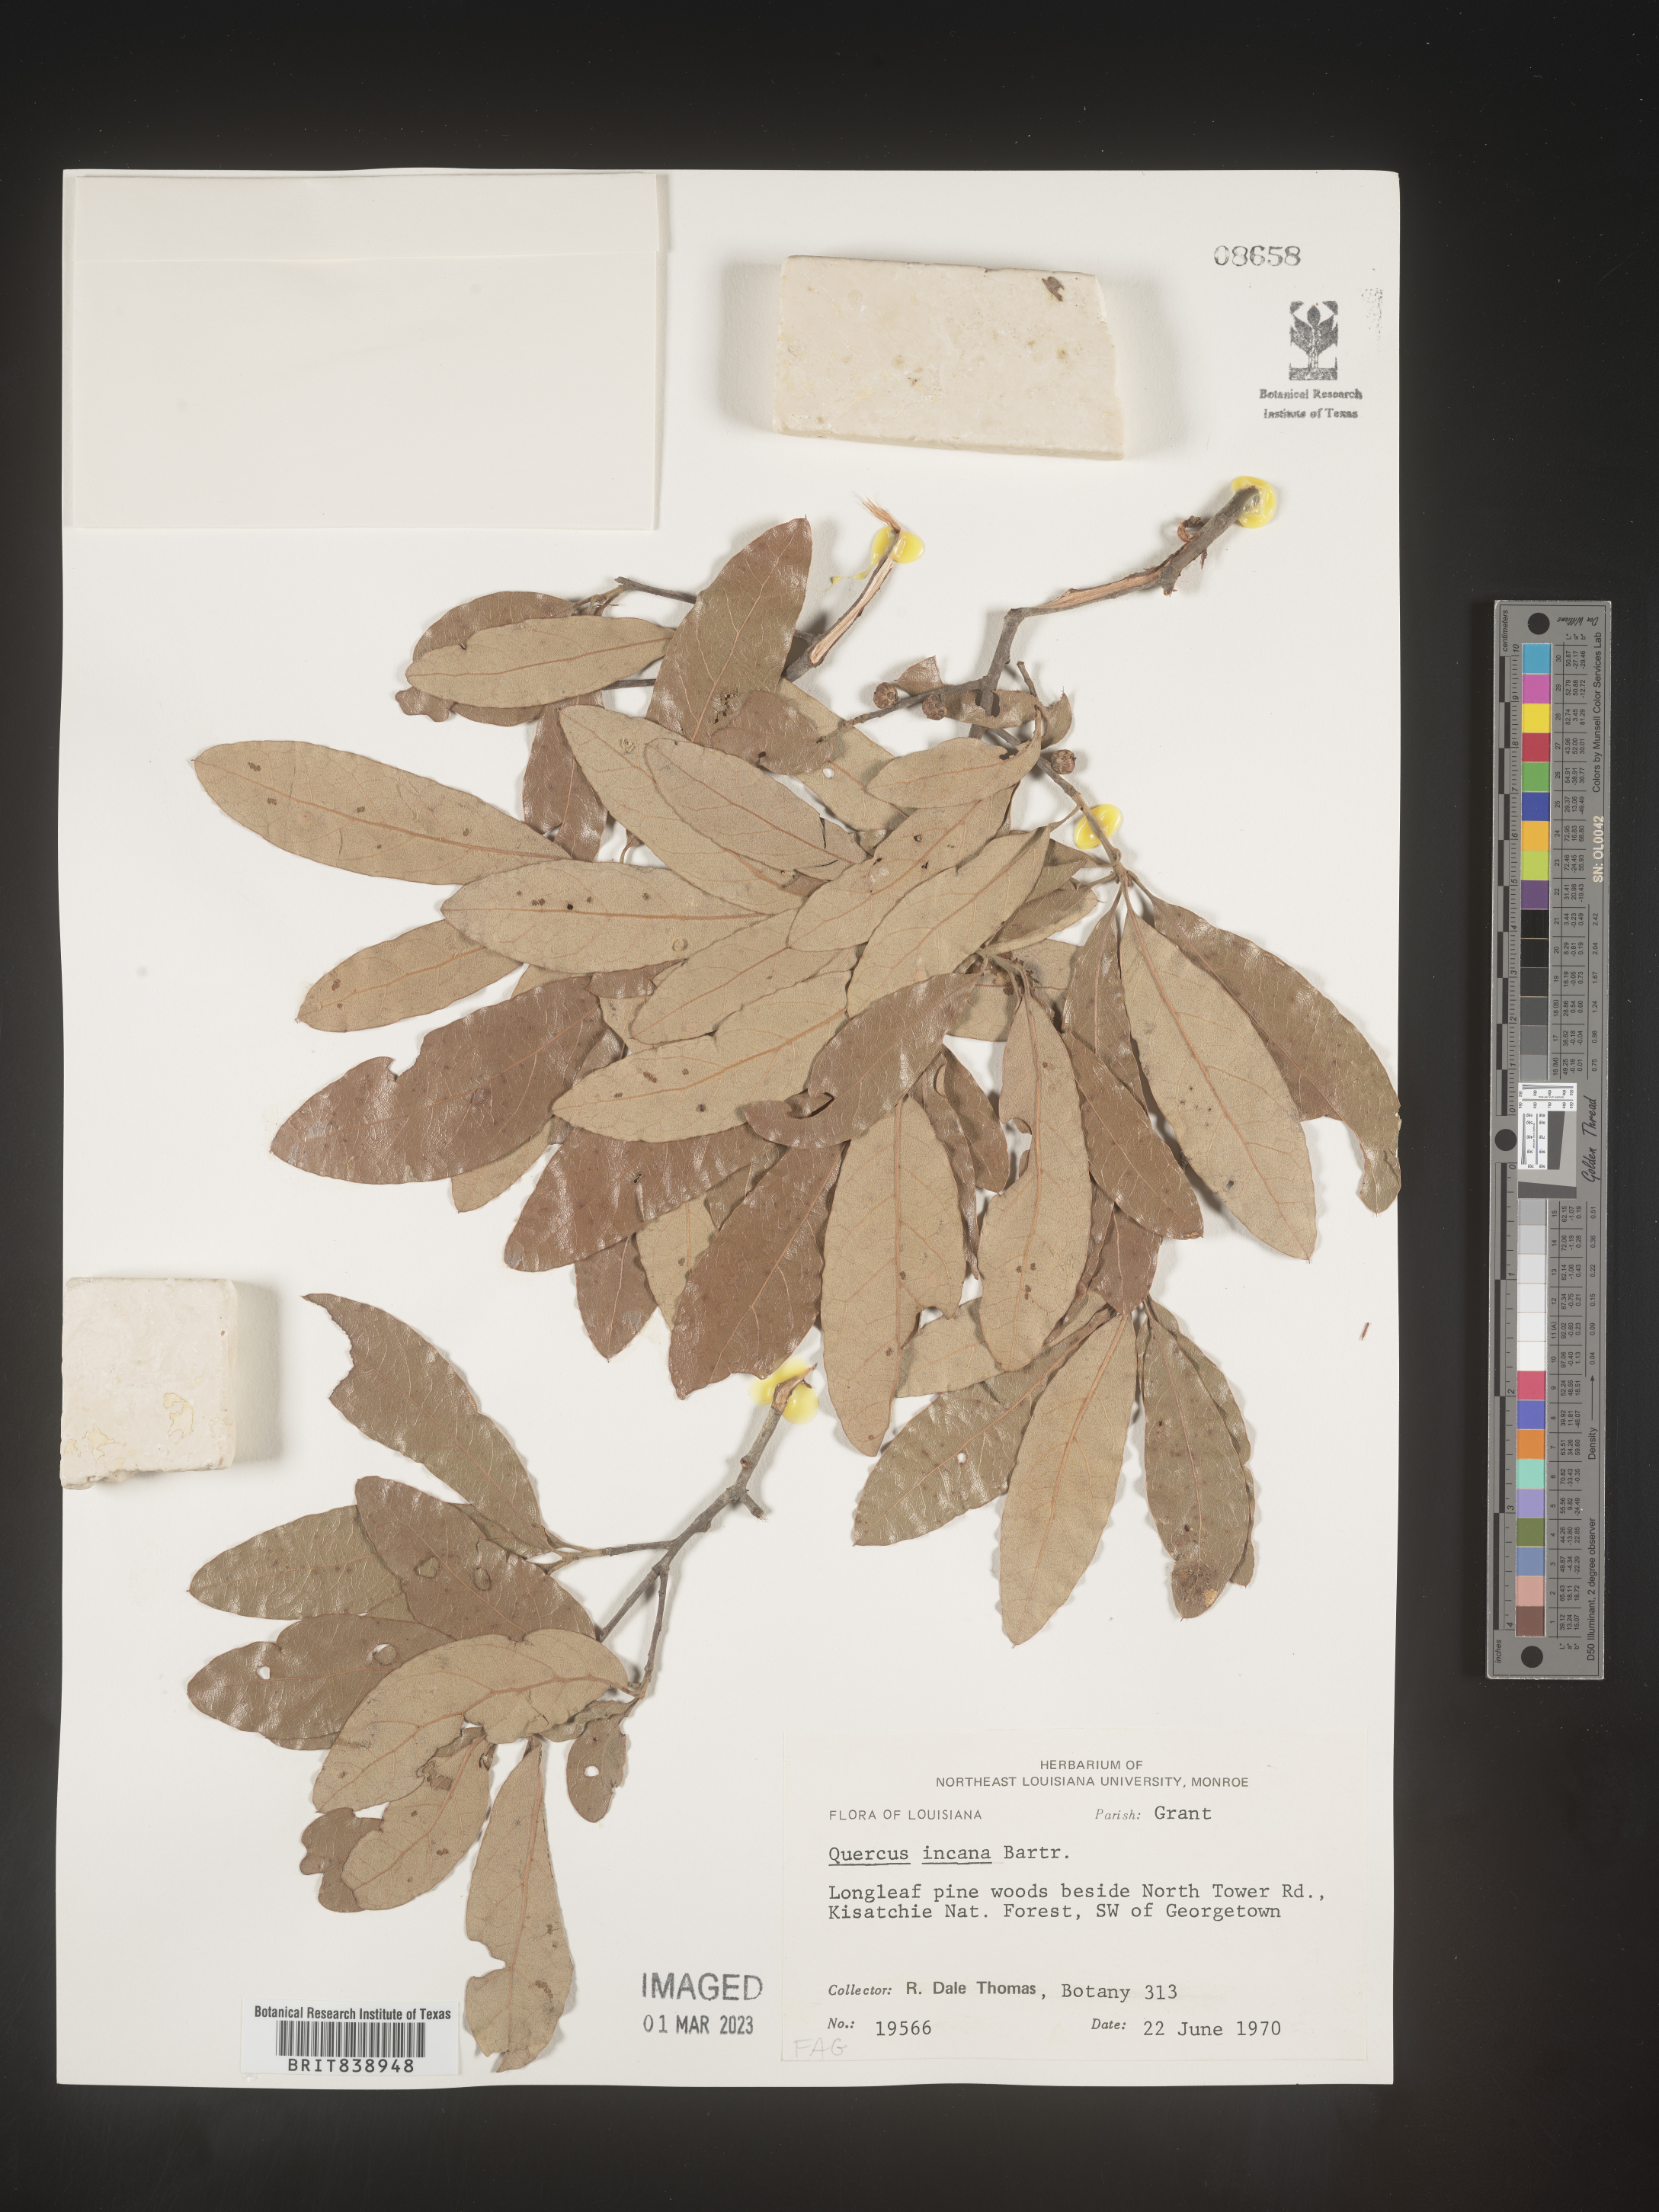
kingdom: Plantae
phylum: Tracheophyta
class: Magnoliopsida
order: Fagales
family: Fagaceae
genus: Quercus
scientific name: Quercus incana
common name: Bluejack oak
